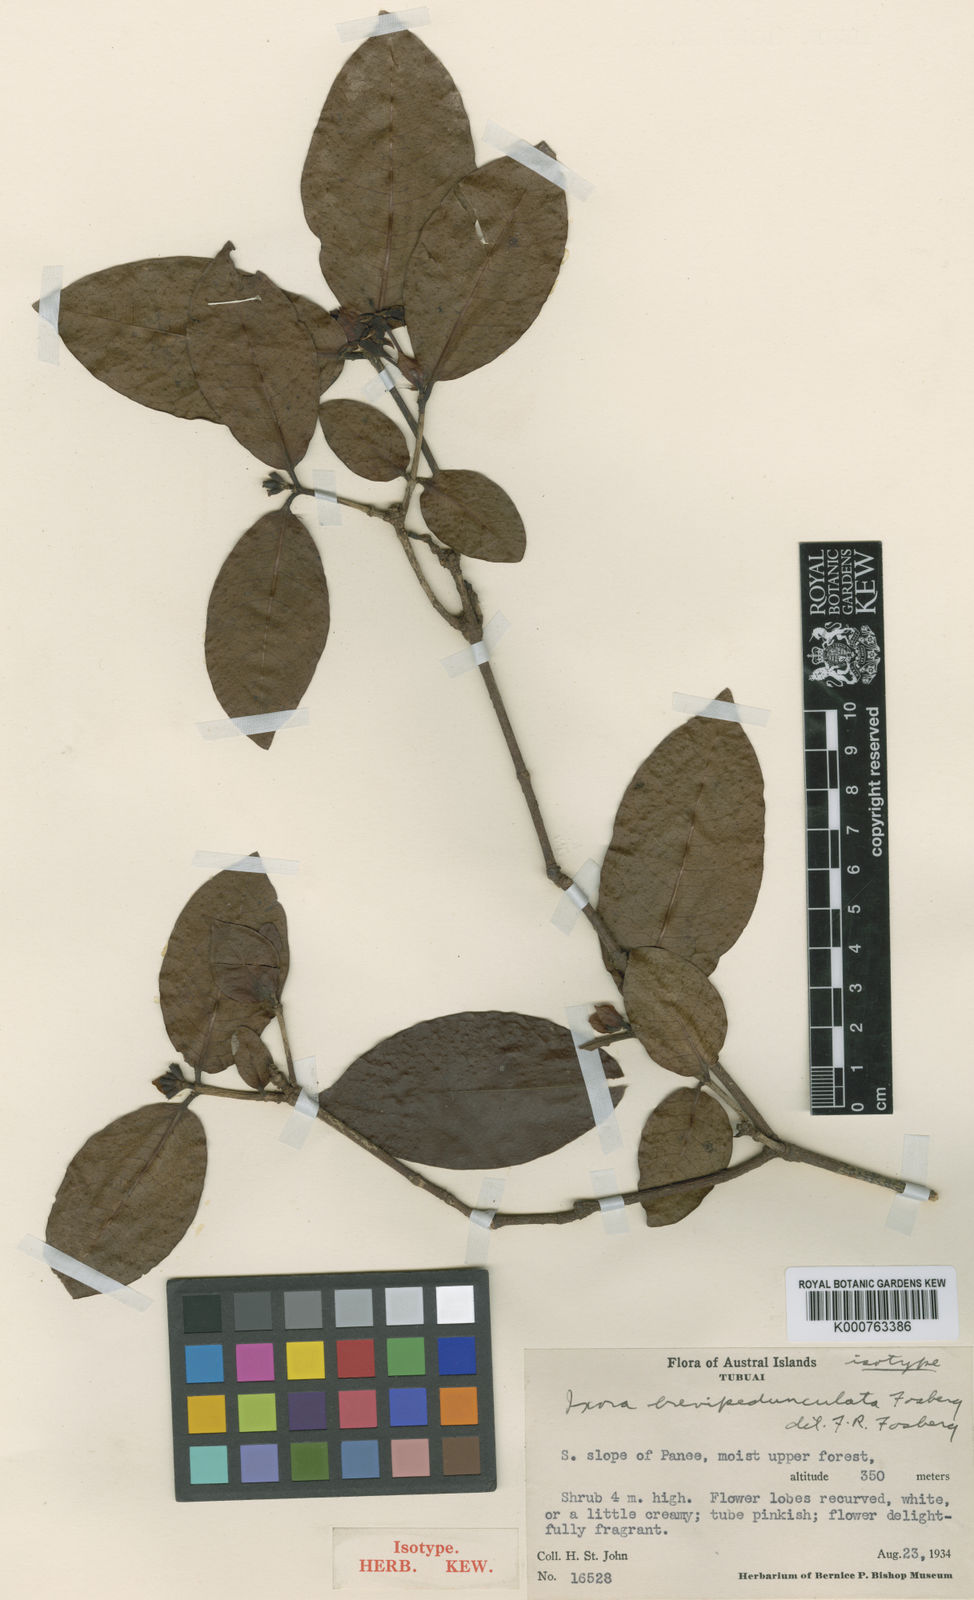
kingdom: Plantae
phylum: Tracheophyta
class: Magnoliopsida
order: Gentianales
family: Rubiaceae
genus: Ixora
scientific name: Ixora brevipedunculata
